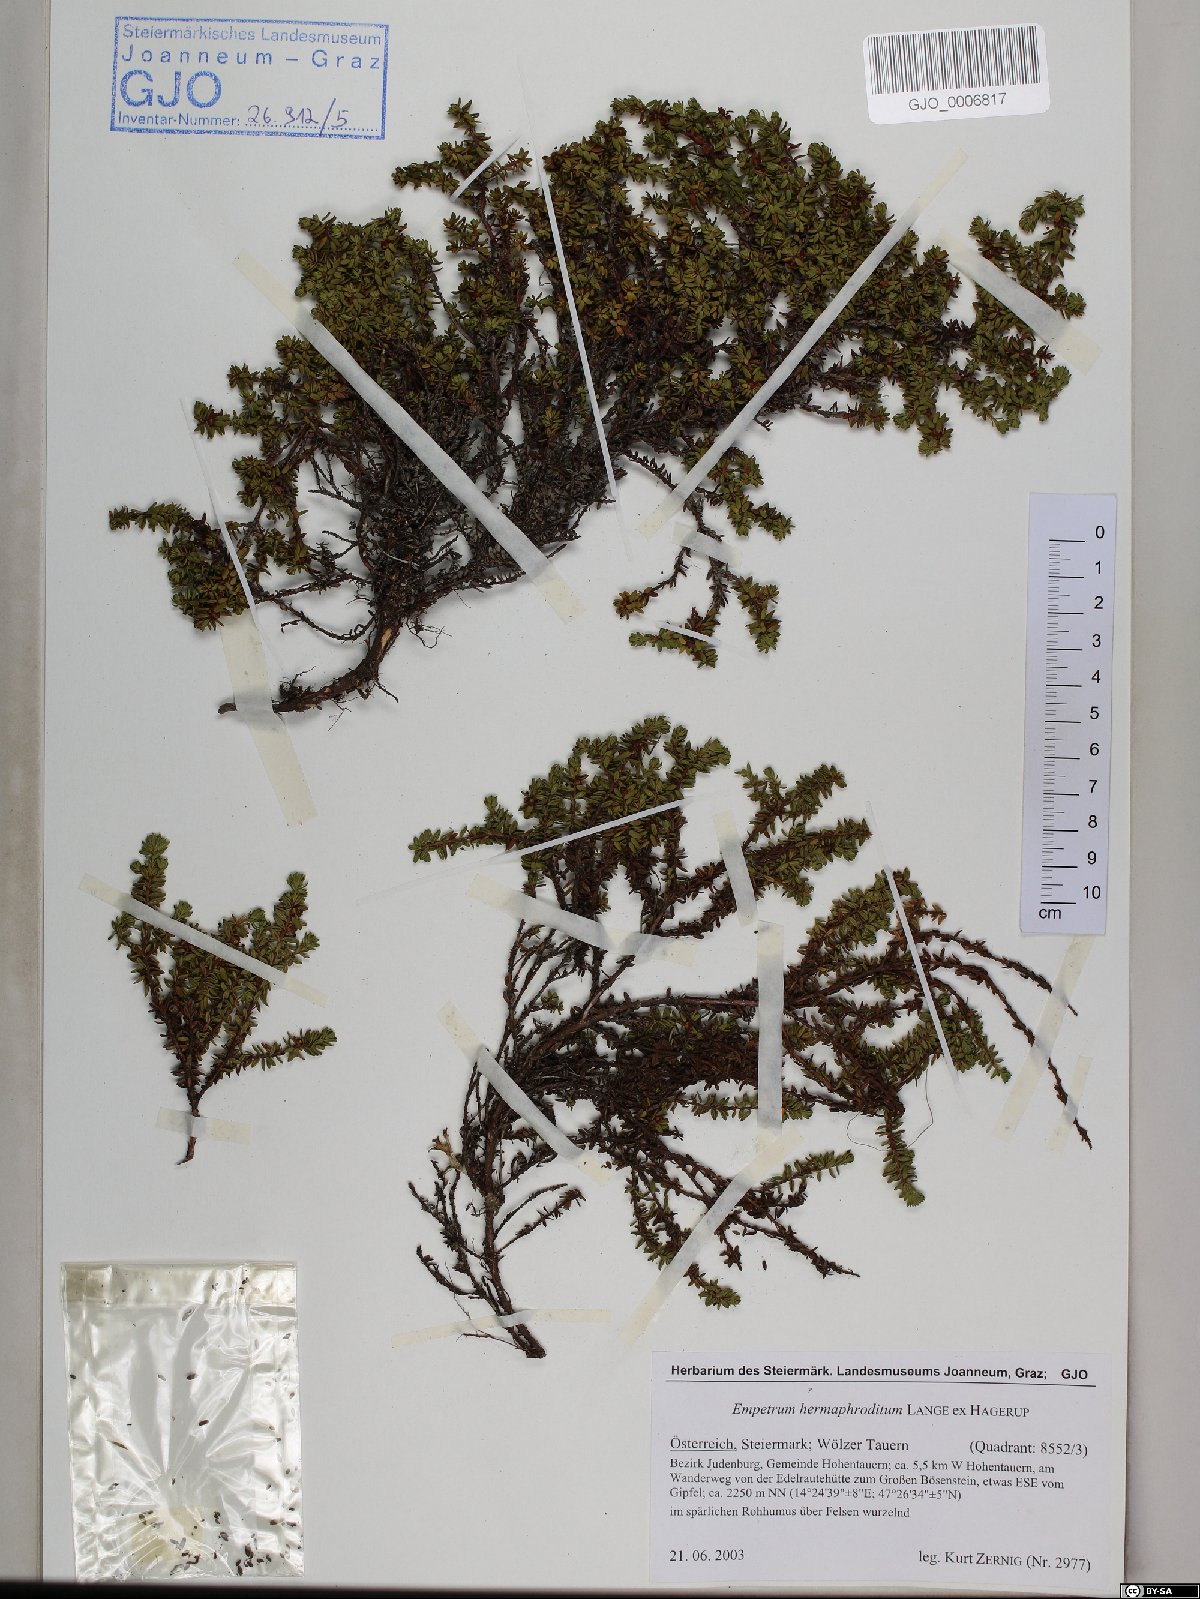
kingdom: Plantae
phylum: Tracheophyta
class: Magnoliopsida
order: Ericales
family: Ericaceae
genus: Empetrum
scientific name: Empetrum hermaphroditum
